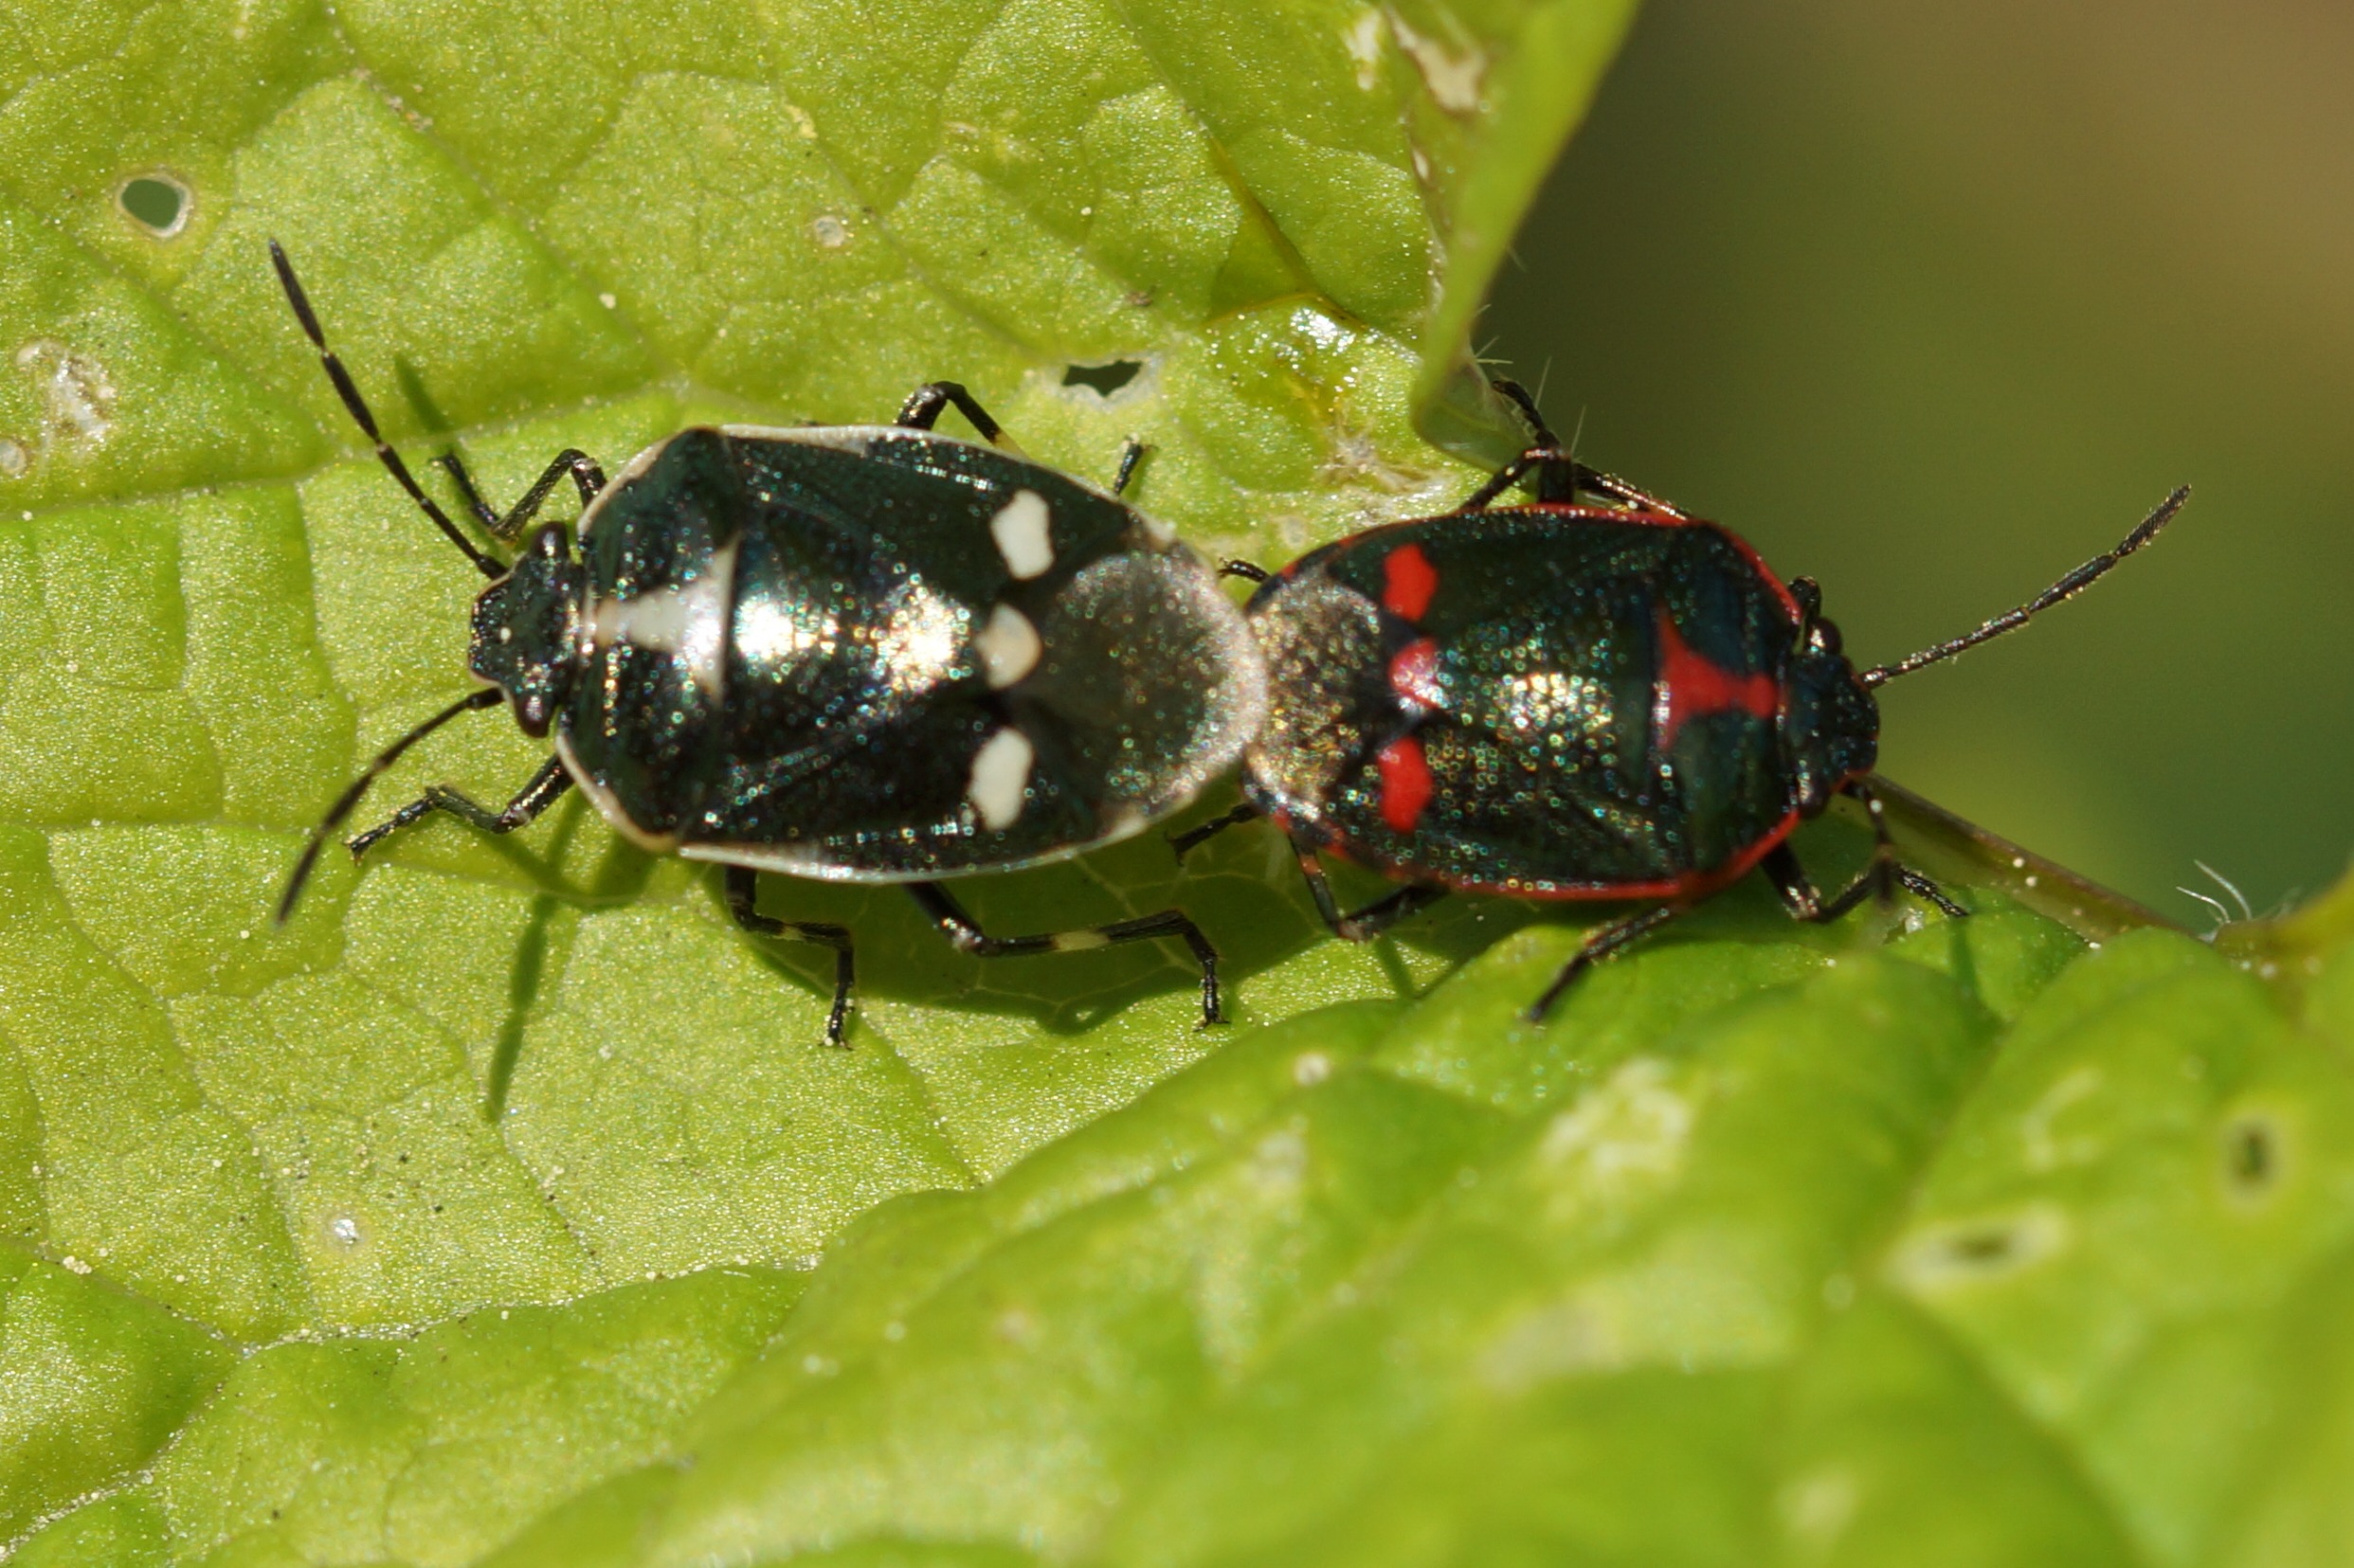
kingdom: Animalia
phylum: Arthropoda
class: Insecta
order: Hemiptera
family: Pentatomidae
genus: Eurydema
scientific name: Eurydema oleracea
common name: Almindelig kåltæge
